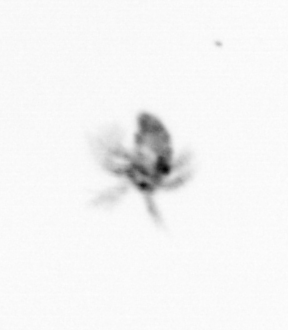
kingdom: Animalia
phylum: Arthropoda
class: Copepoda
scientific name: Copepoda
